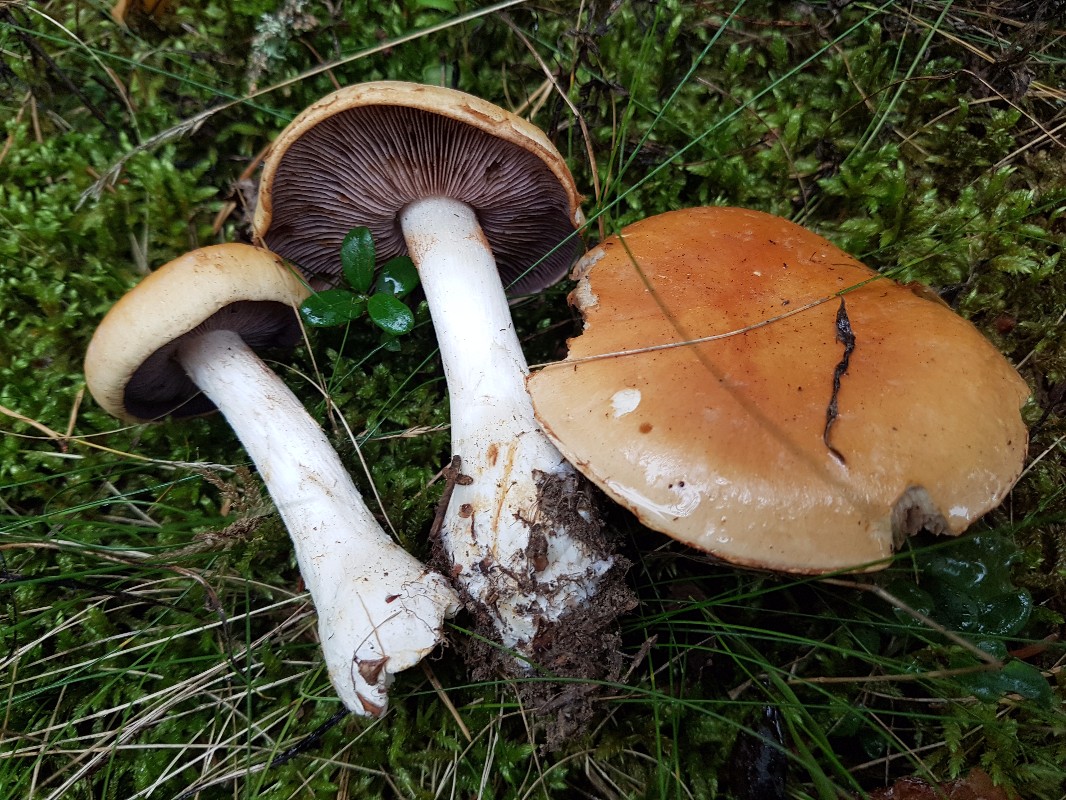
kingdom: Fungi
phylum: Basidiomycota
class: Agaricomycetes
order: Agaricales
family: Cortinariaceae
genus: Cortinarius
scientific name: Cortinarius varius
